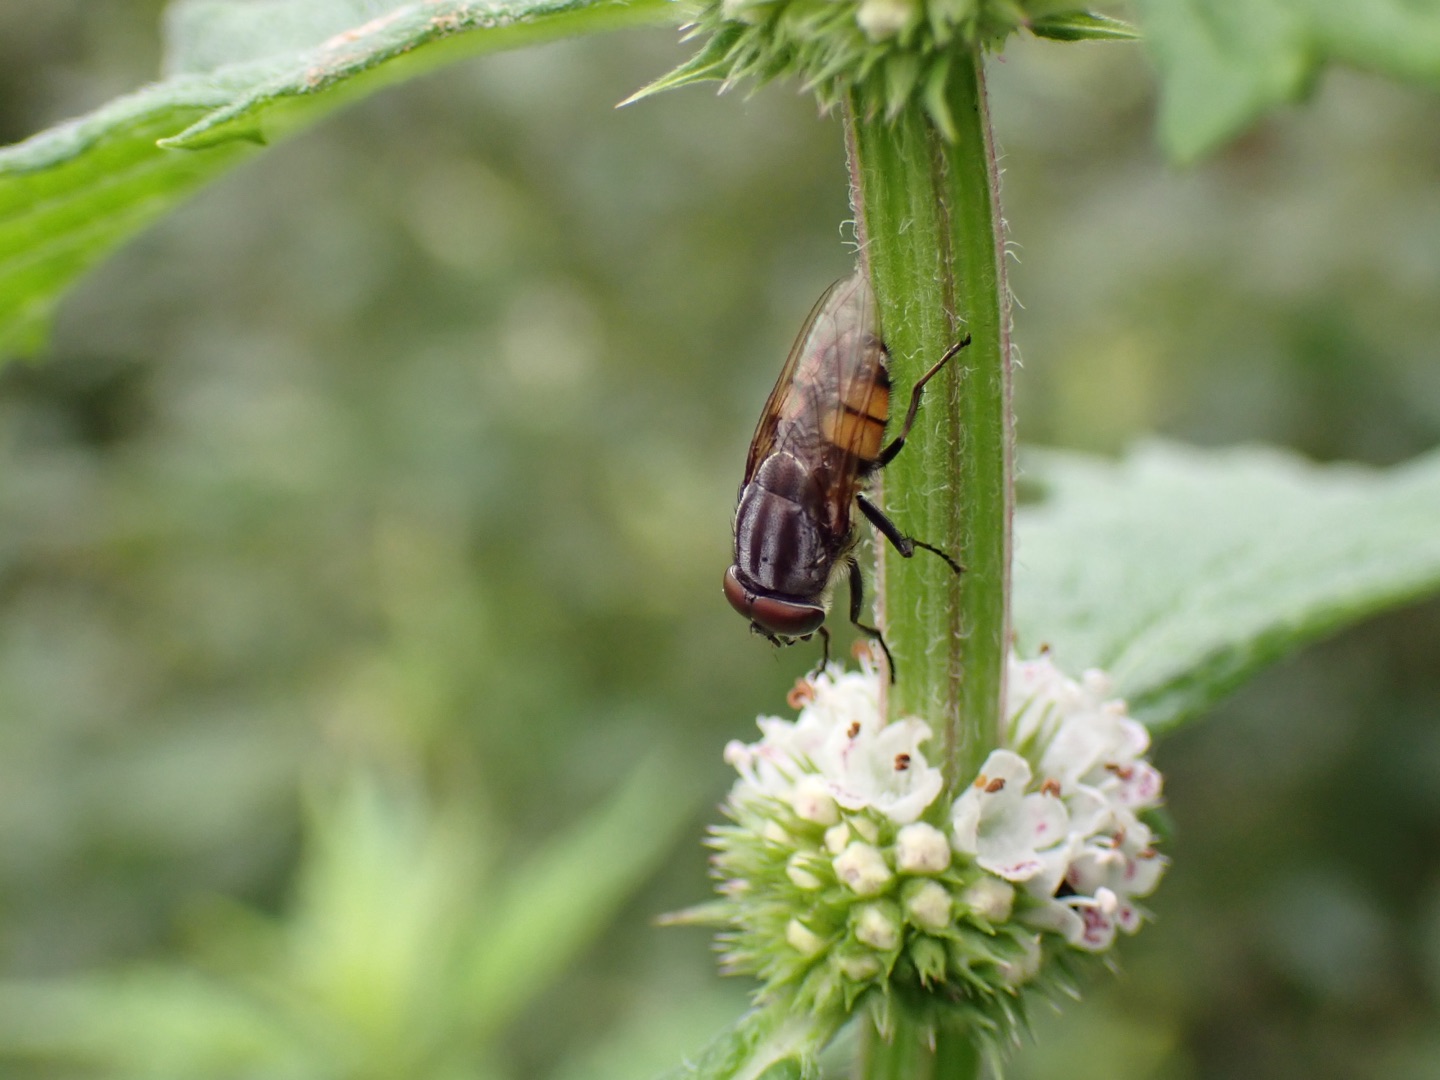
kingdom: Animalia
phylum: Arthropoda
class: Insecta
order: Diptera
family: Calliphoridae
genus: Stomorhina
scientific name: Stomorhina lunata
